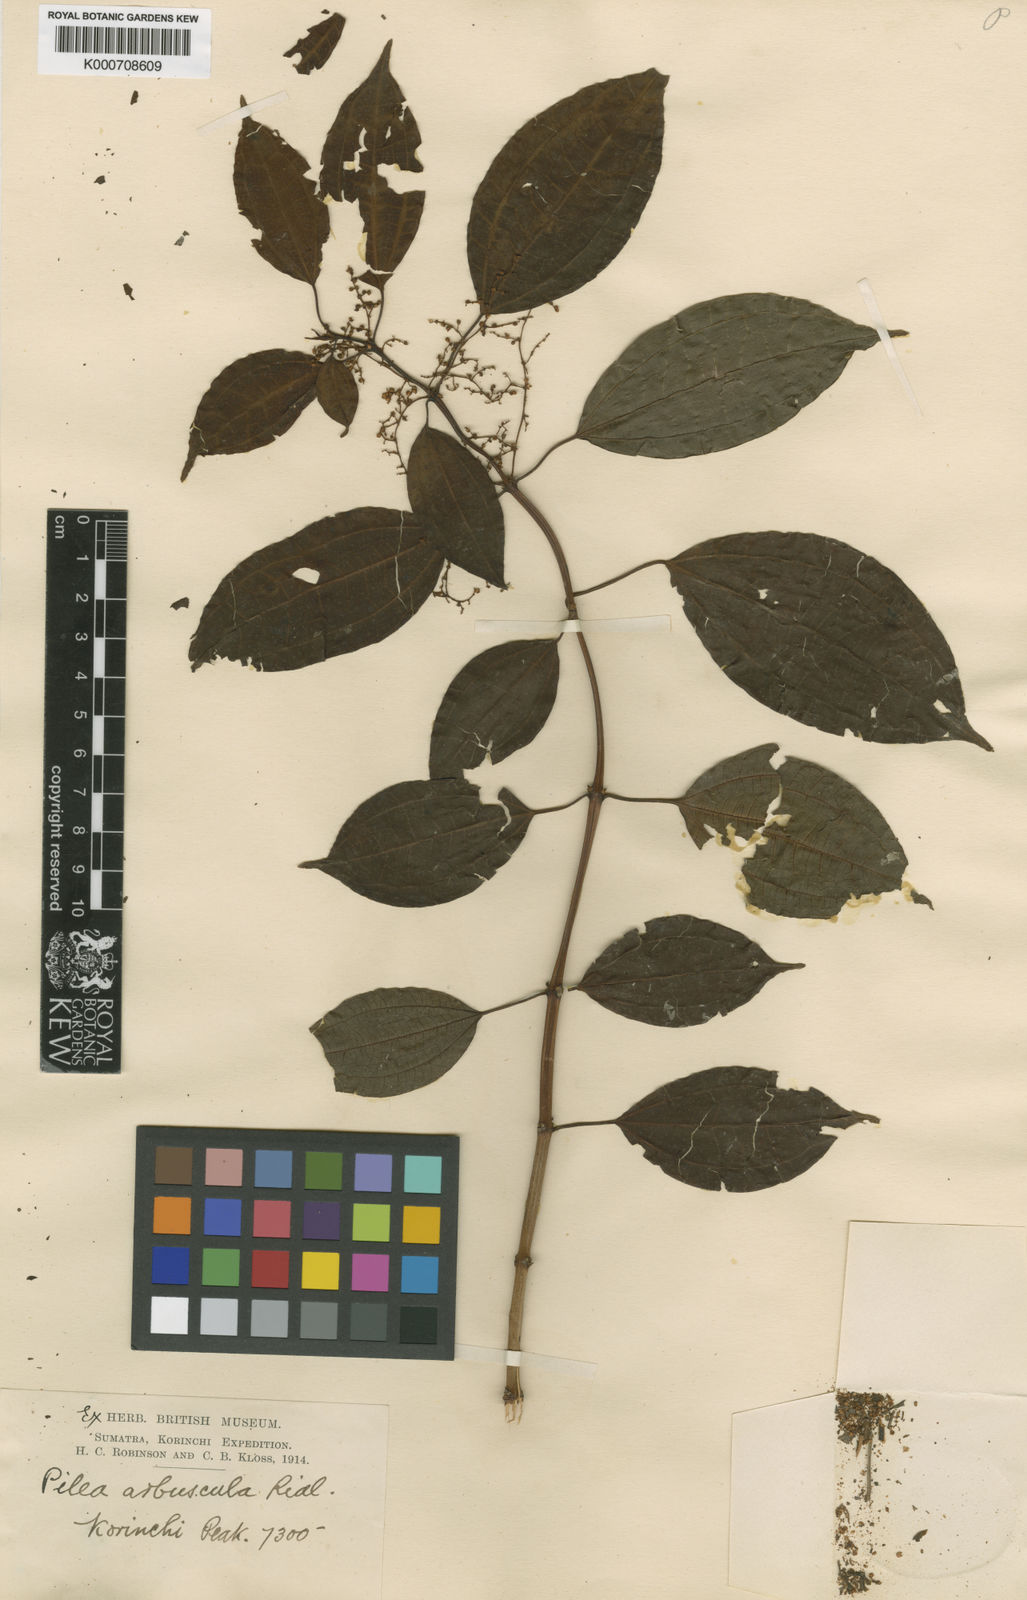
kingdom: Plantae
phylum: Tracheophyta
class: Magnoliopsida
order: Rosales
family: Urticaceae
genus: Pilea
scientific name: Pilea arbuscula
